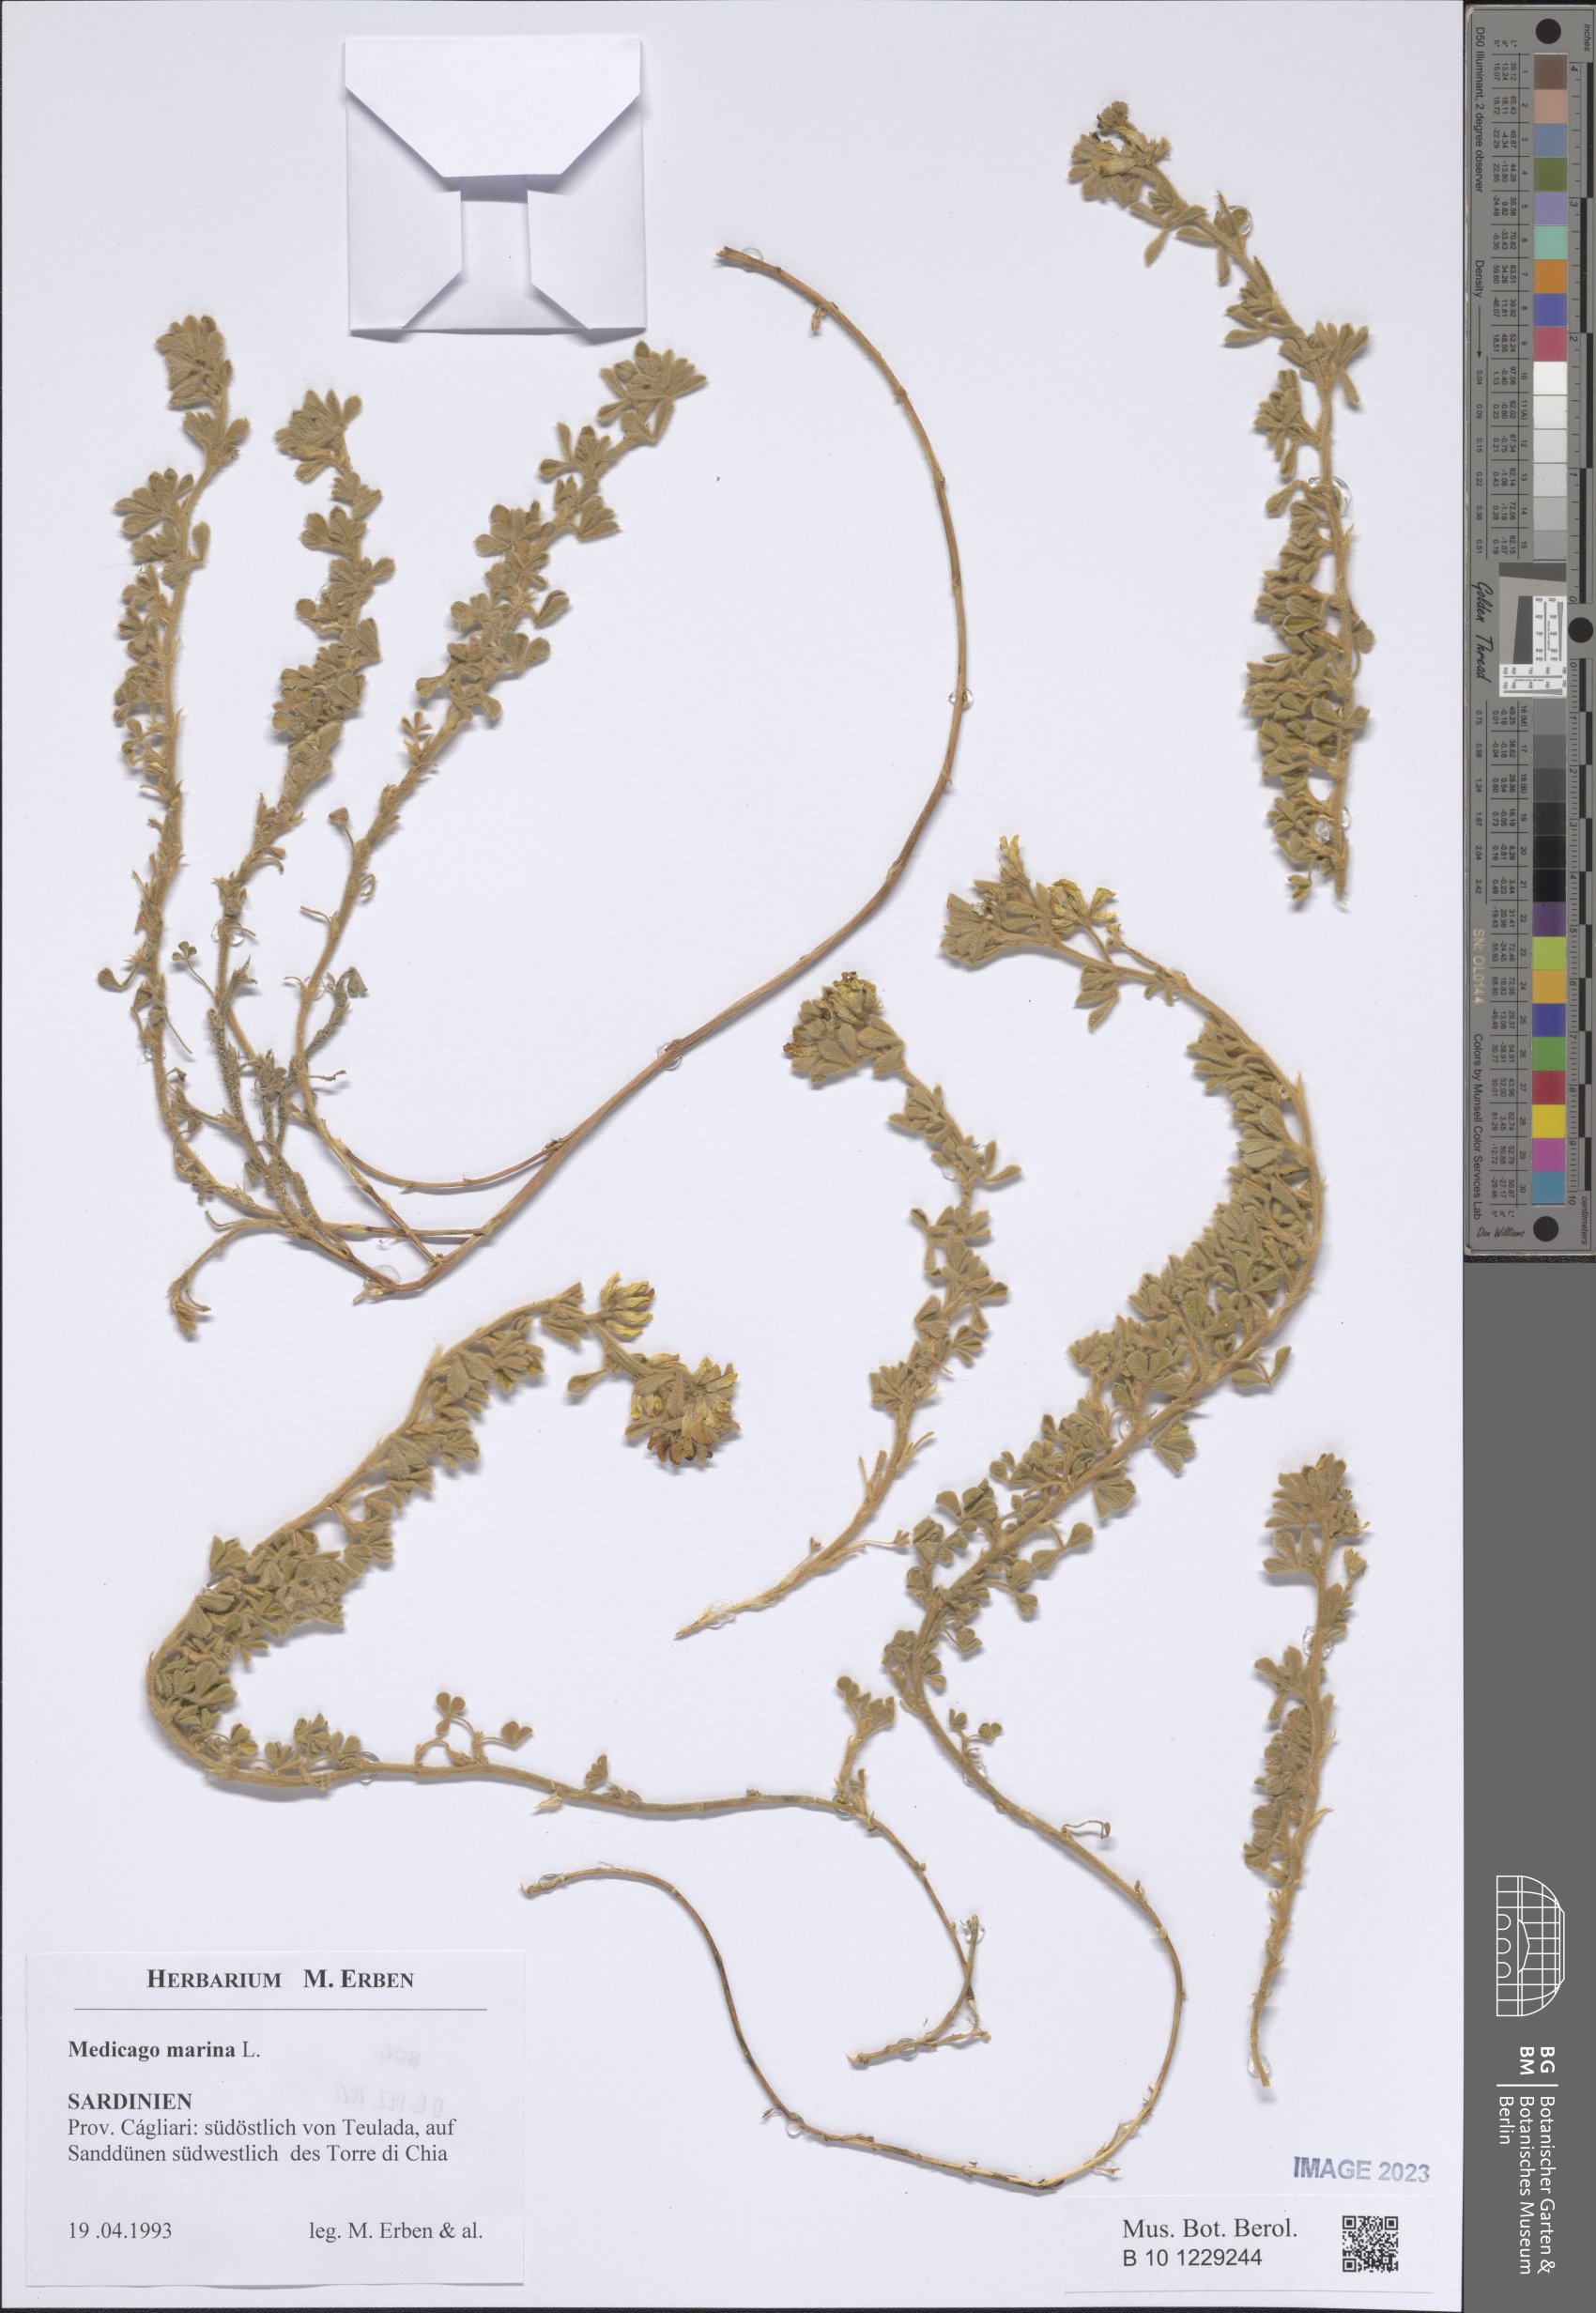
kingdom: Plantae
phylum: Tracheophyta
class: Magnoliopsida
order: Fabales
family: Fabaceae
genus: Medicago
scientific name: Medicago marina
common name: Sea medick
